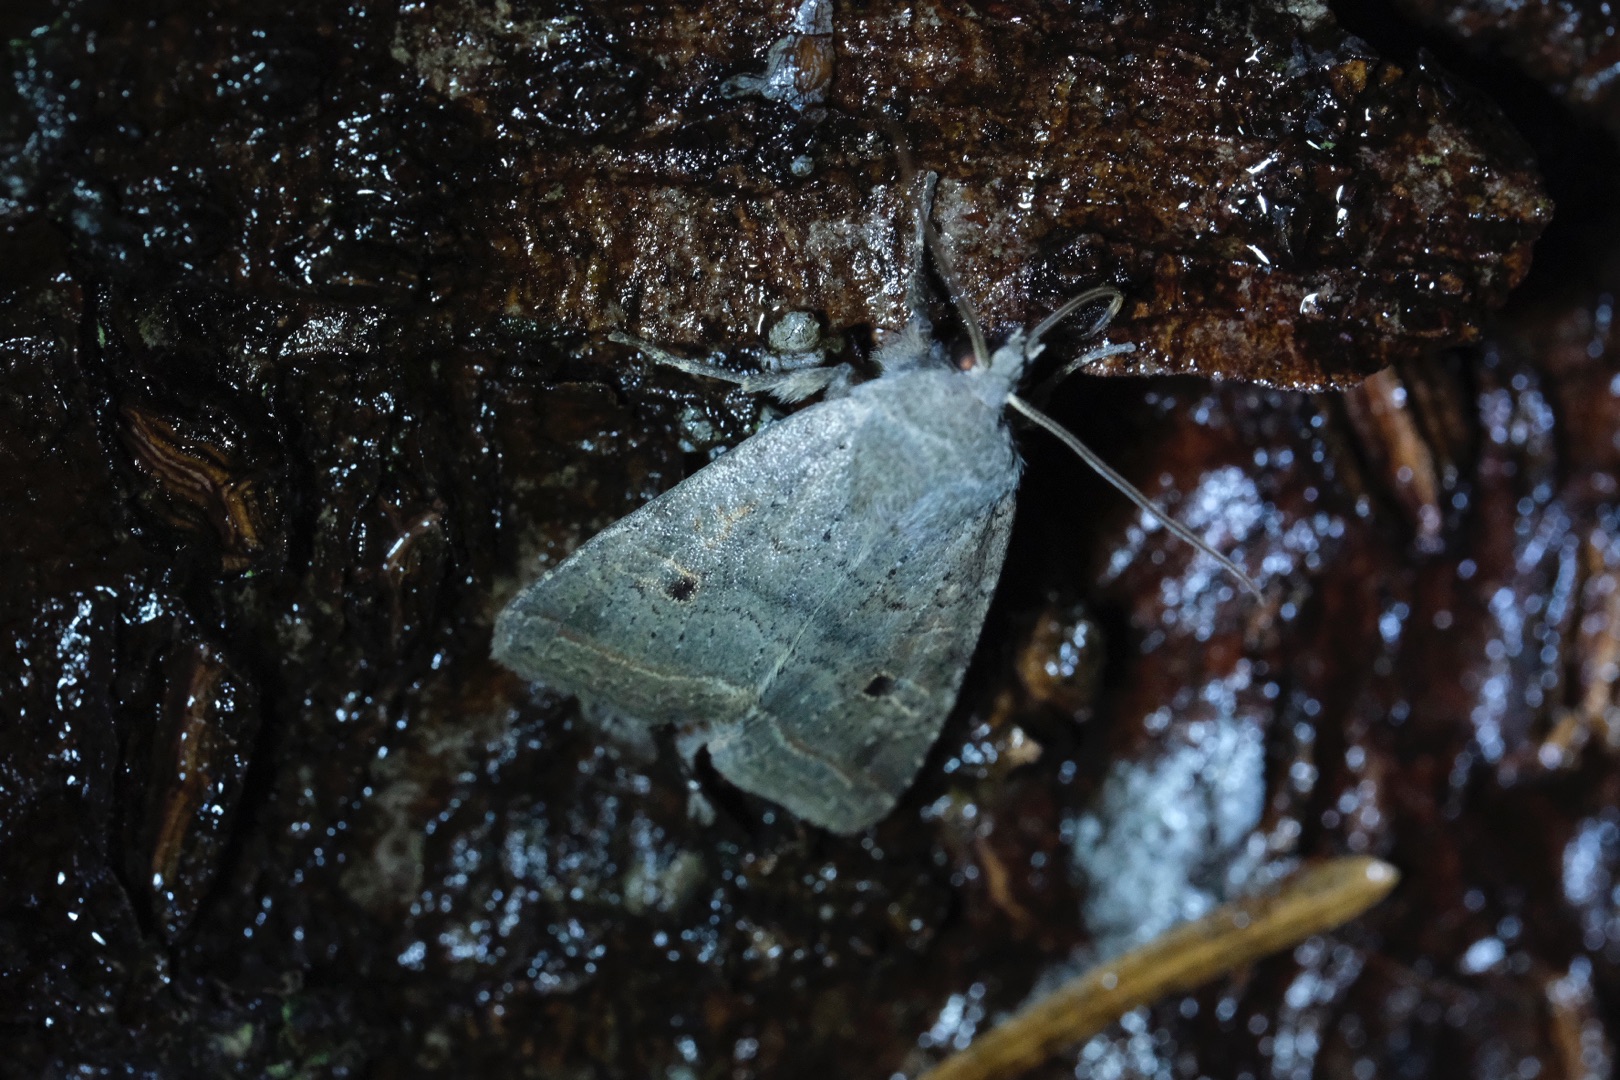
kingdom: Animalia
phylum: Arthropoda
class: Insecta
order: Lepidoptera
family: Noctuidae
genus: Agrochola
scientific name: Agrochola Leptologia lota
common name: Pile-jordfarveugle
